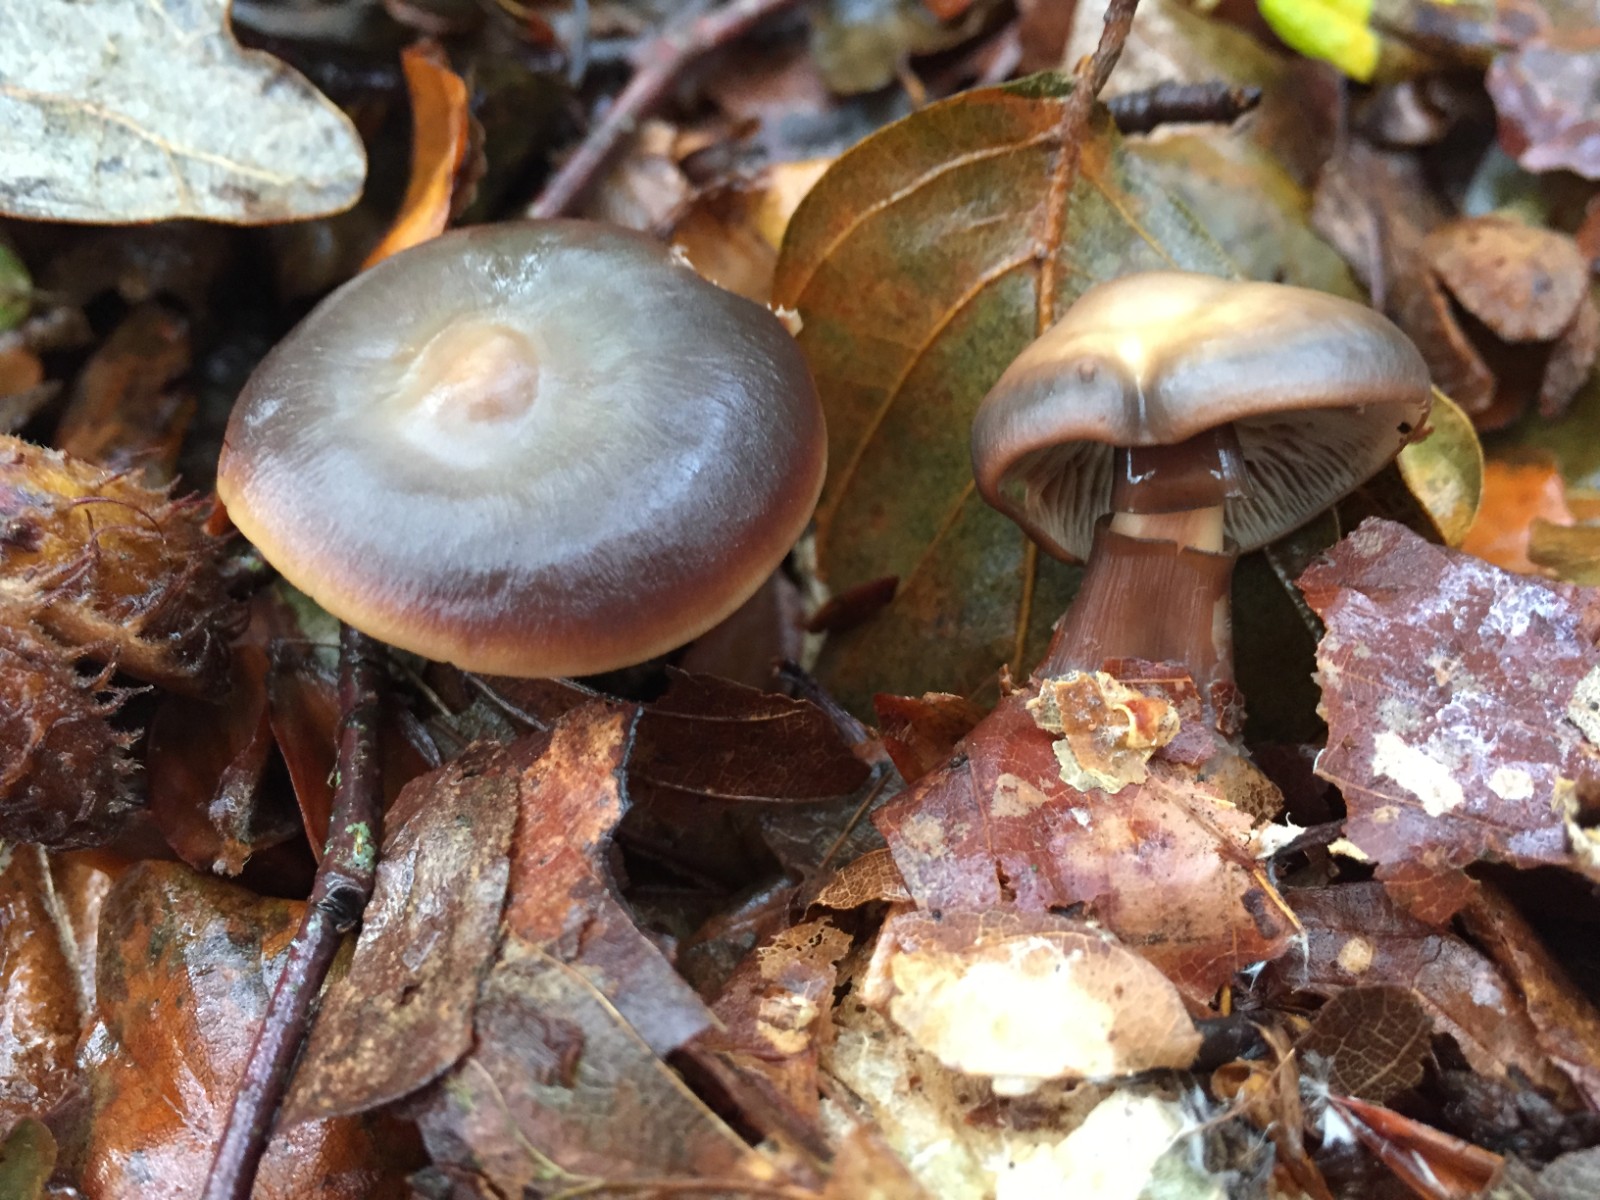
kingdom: Fungi
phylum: Basidiomycota
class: Agaricomycetes
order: Agaricales
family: Omphalotaceae
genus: Rhodocollybia
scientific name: Rhodocollybia butyracea
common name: keglestokket fladhat
